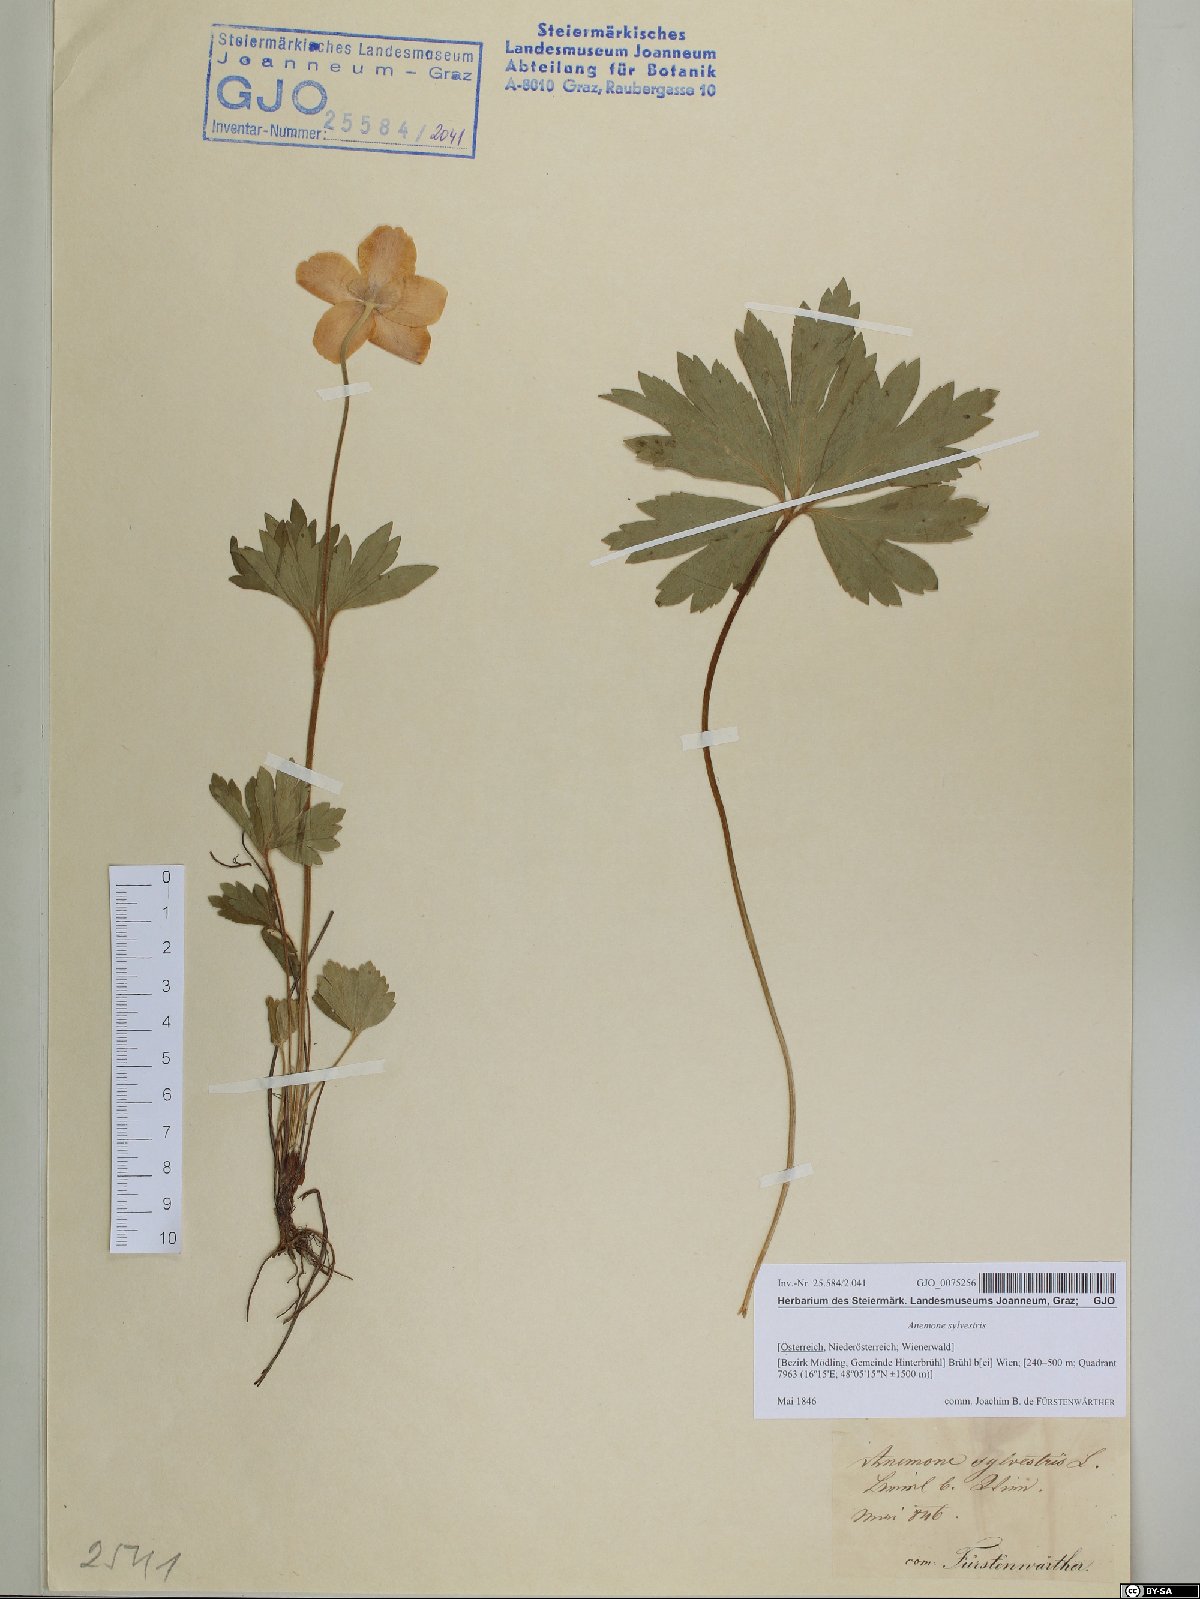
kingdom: Plantae
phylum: Tracheophyta
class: Magnoliopsida
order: Ranunculales
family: Ranunculaceae
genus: Anemone
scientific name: Anemone sylvestris
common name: Snowdrop anemone
